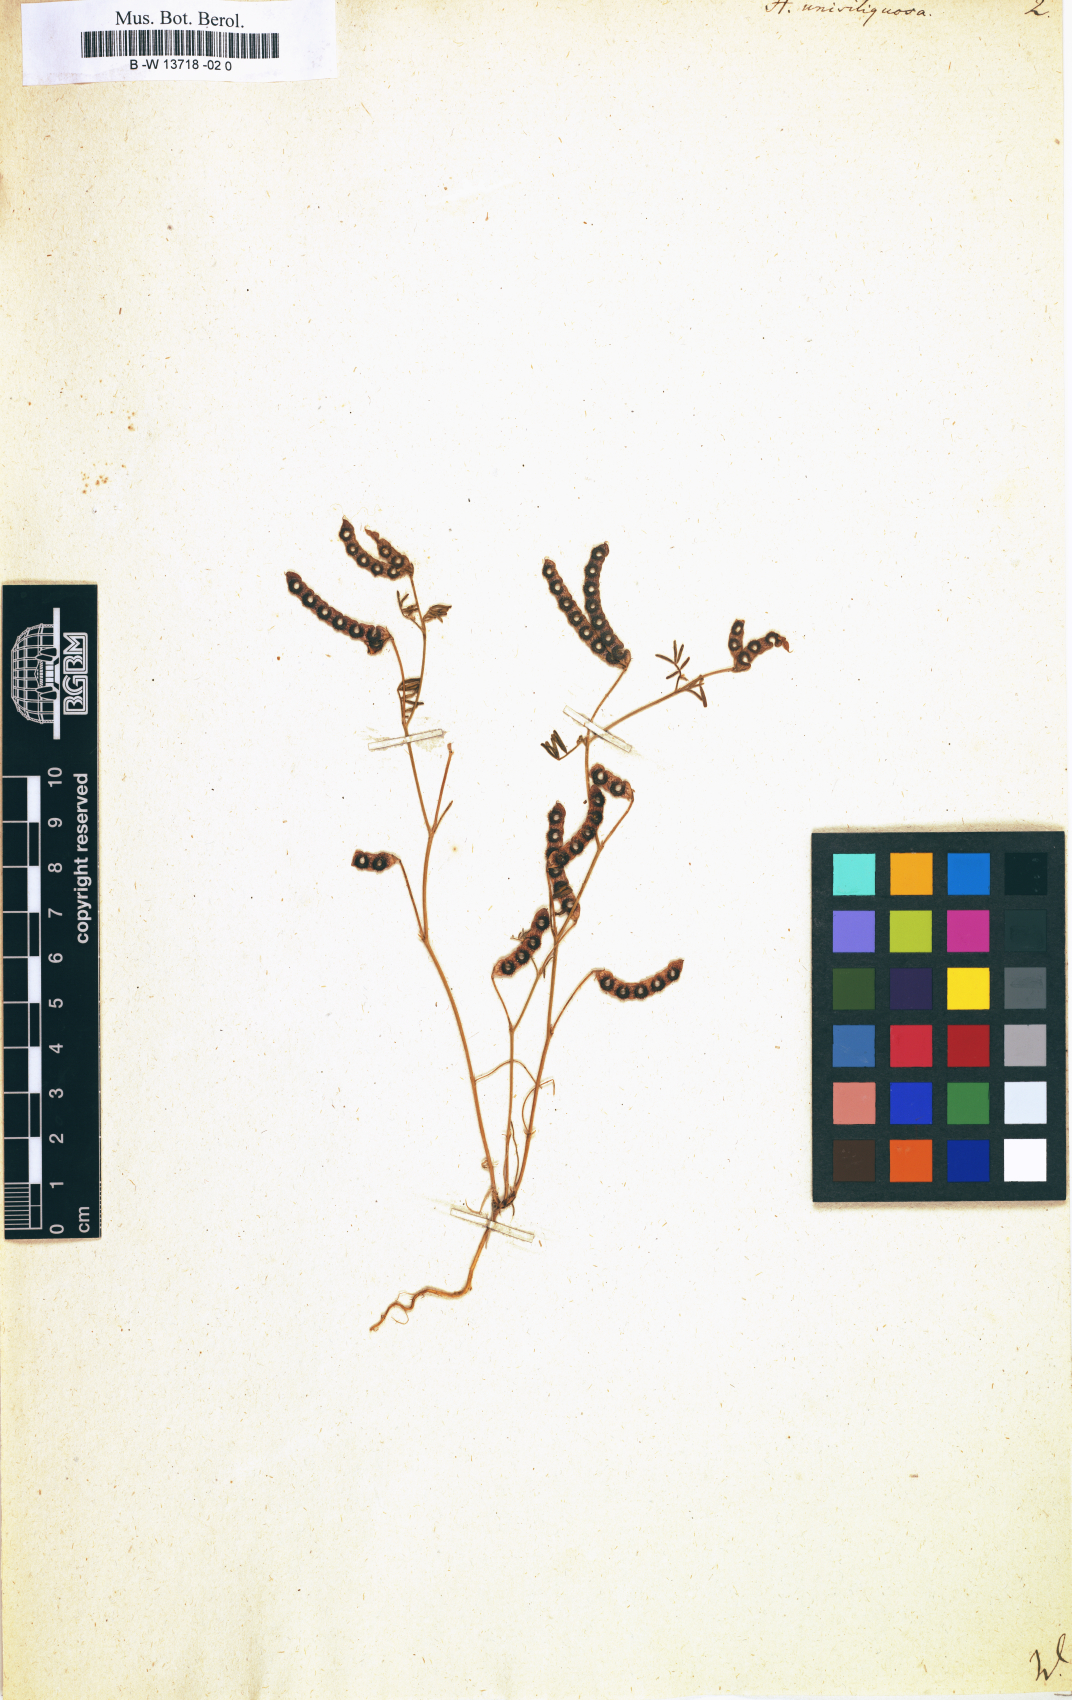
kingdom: Plantae
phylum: Tracheophyta
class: Magnoliopsida
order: Fabales
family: Fabaceae
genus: Hippocrepis
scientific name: Hippocrepis unisiliquosa
